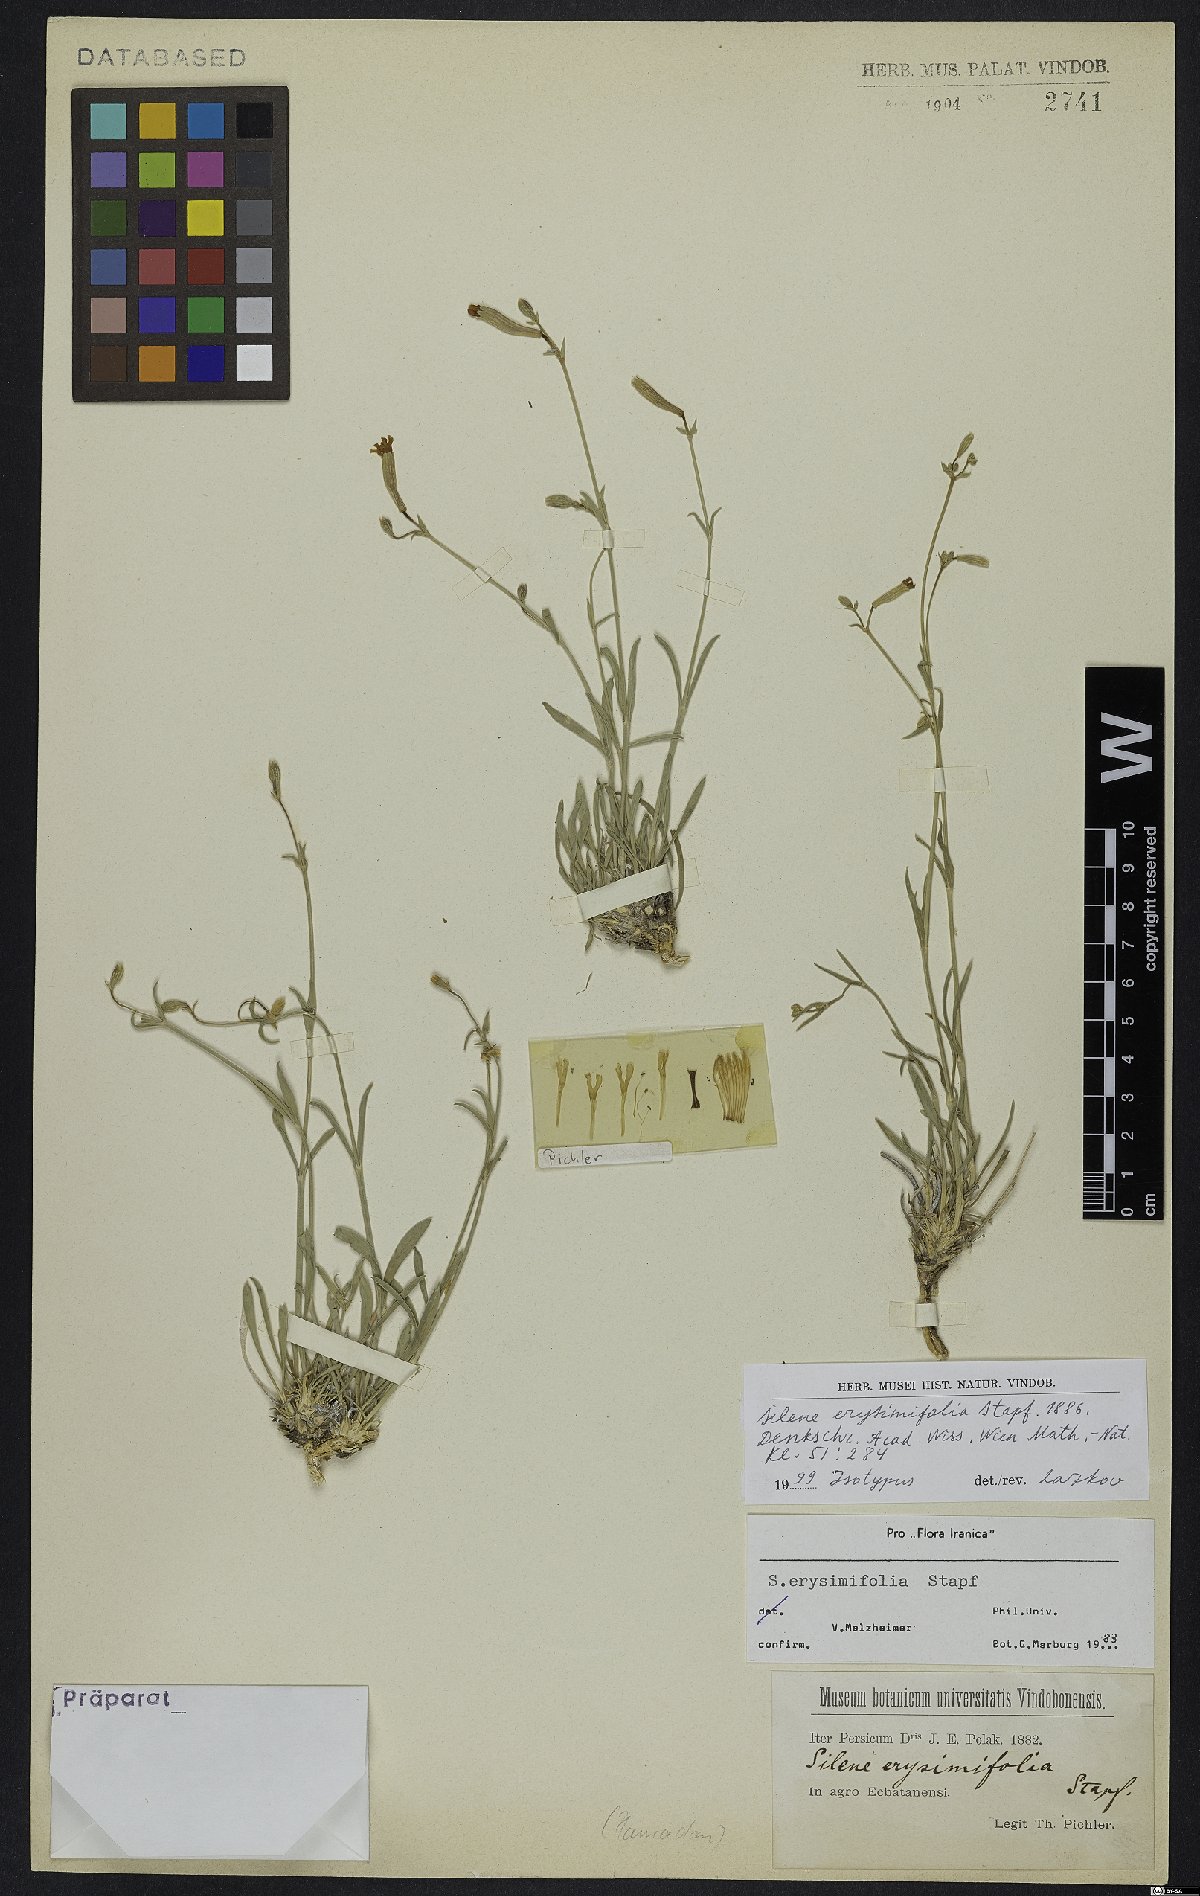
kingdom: Plantae
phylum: Tracheophyta
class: Magnoliopsida
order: Caryophyllales
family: Caryophyllaceae
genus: Silene
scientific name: Silene erysimifolia
